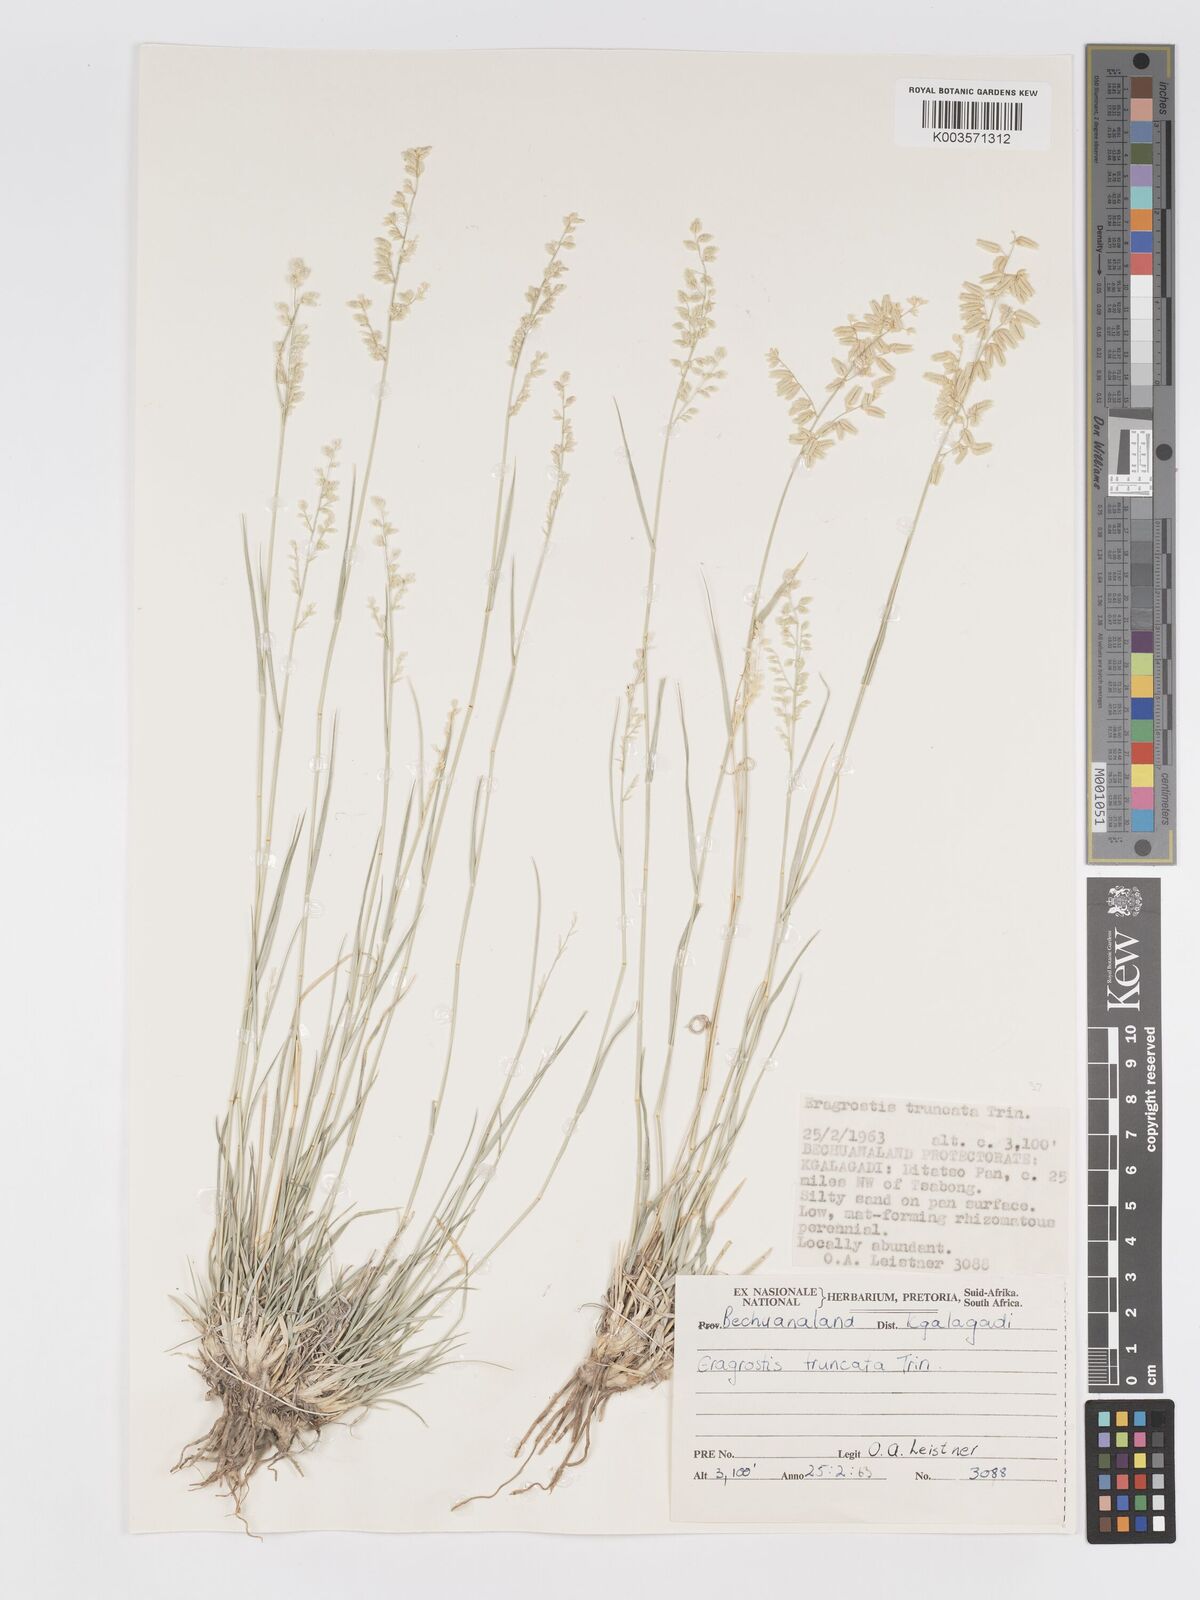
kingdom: Plantae
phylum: Tracheophyta
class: Liliopsida
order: Poales
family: Poaceae
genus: Eragrostis
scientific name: Eragrostis truncata
